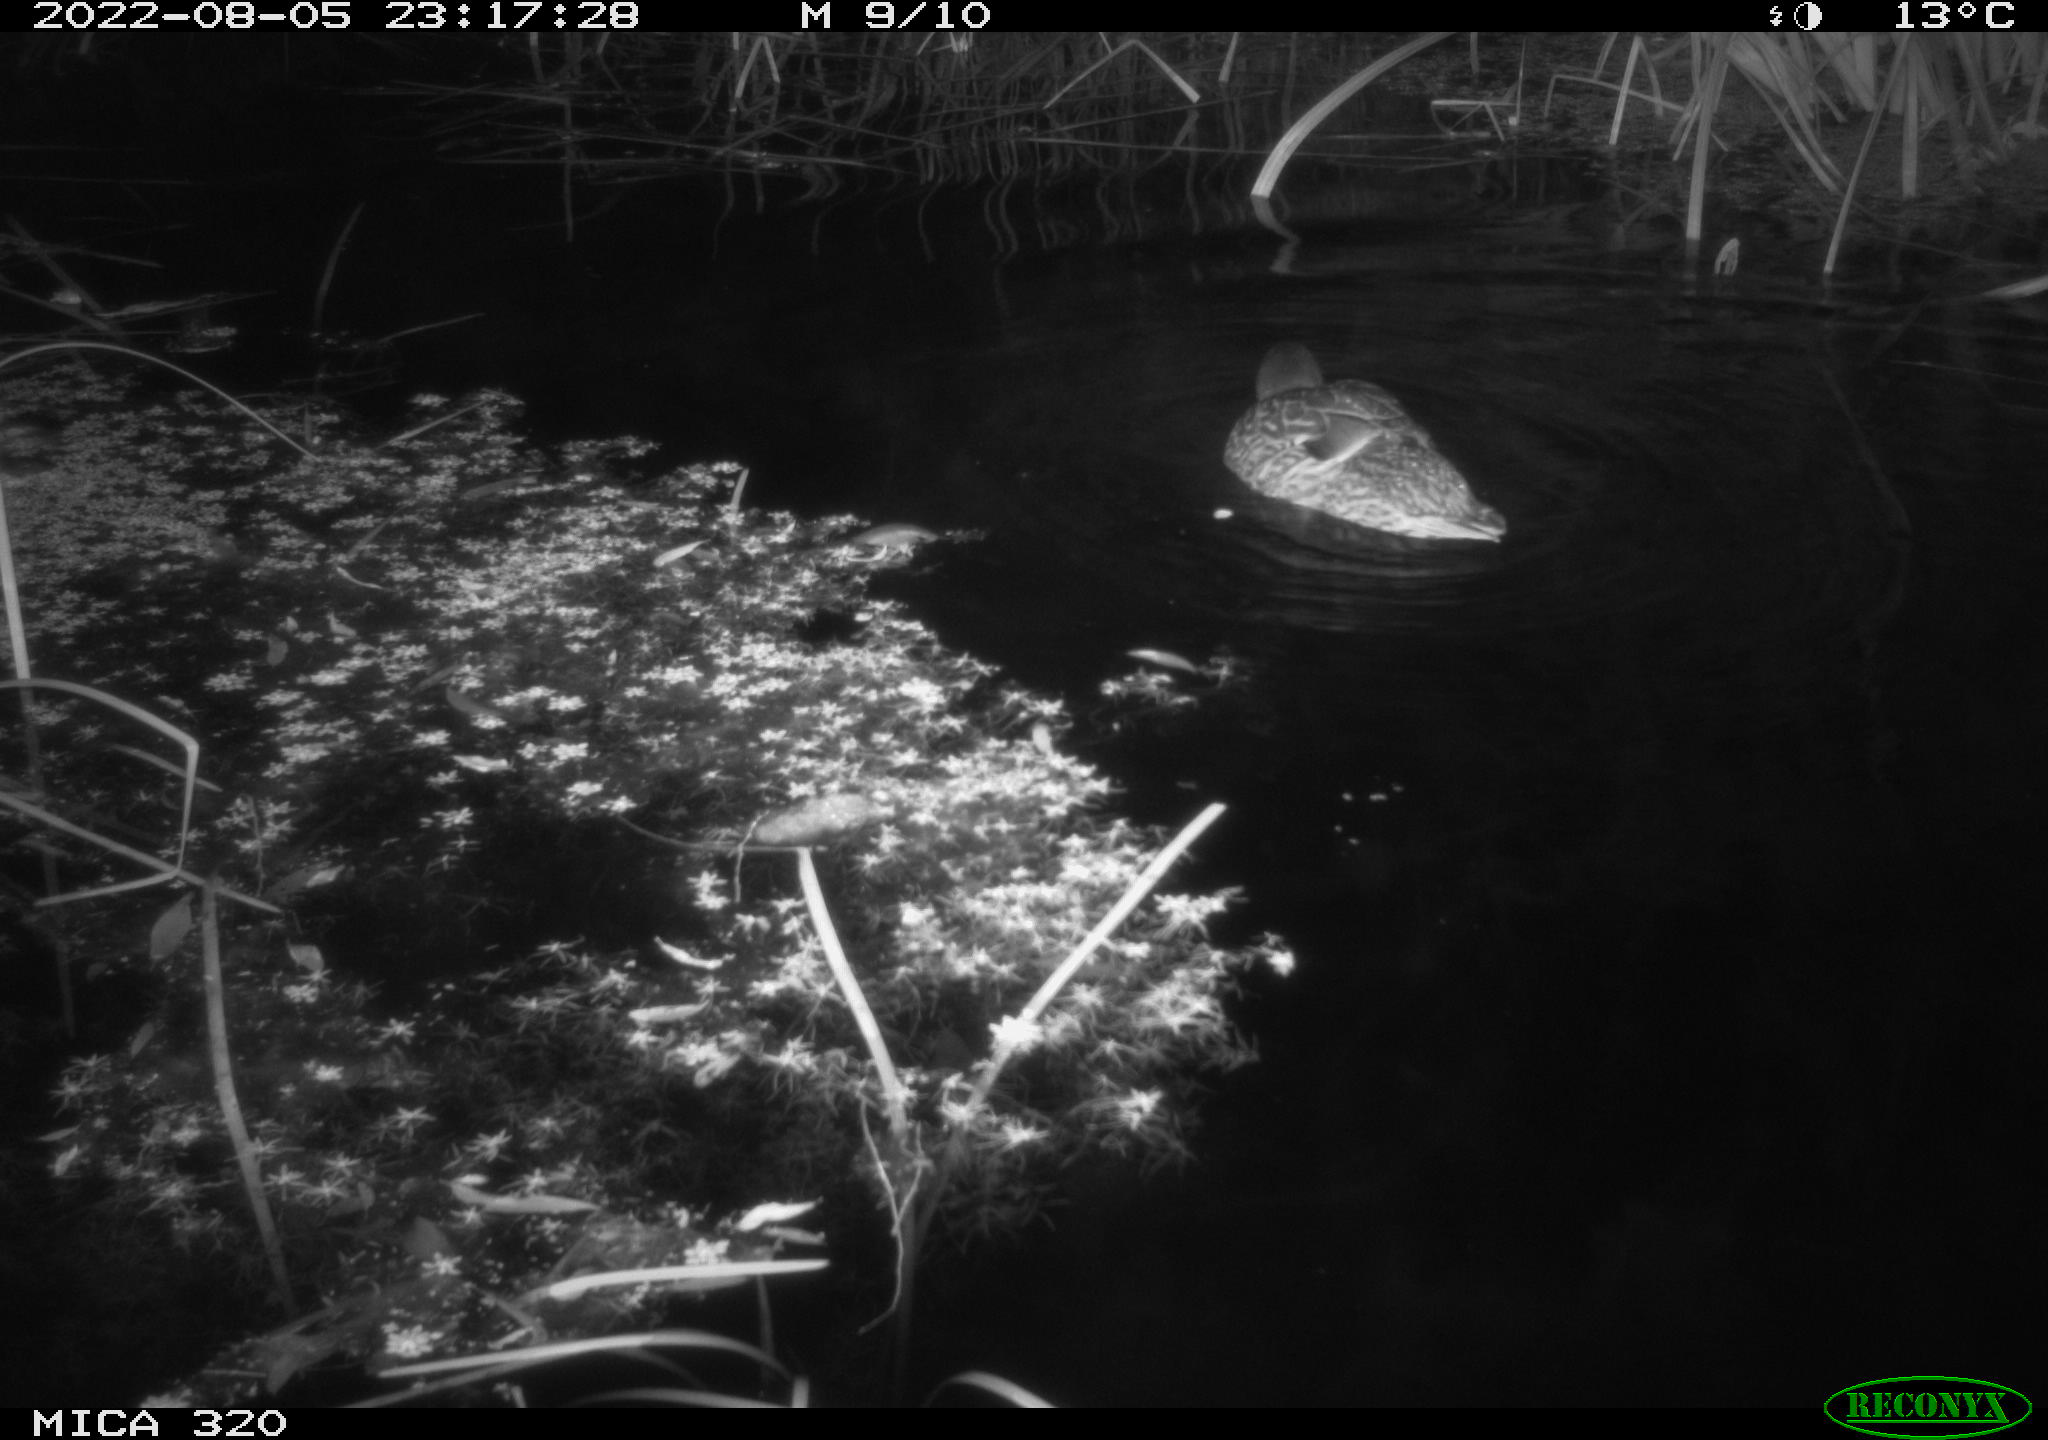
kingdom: Animalia
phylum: Chordata
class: Aves
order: Anseriformes
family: Anatidae
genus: Anas
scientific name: Anas platyrhynchos
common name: Mallard
